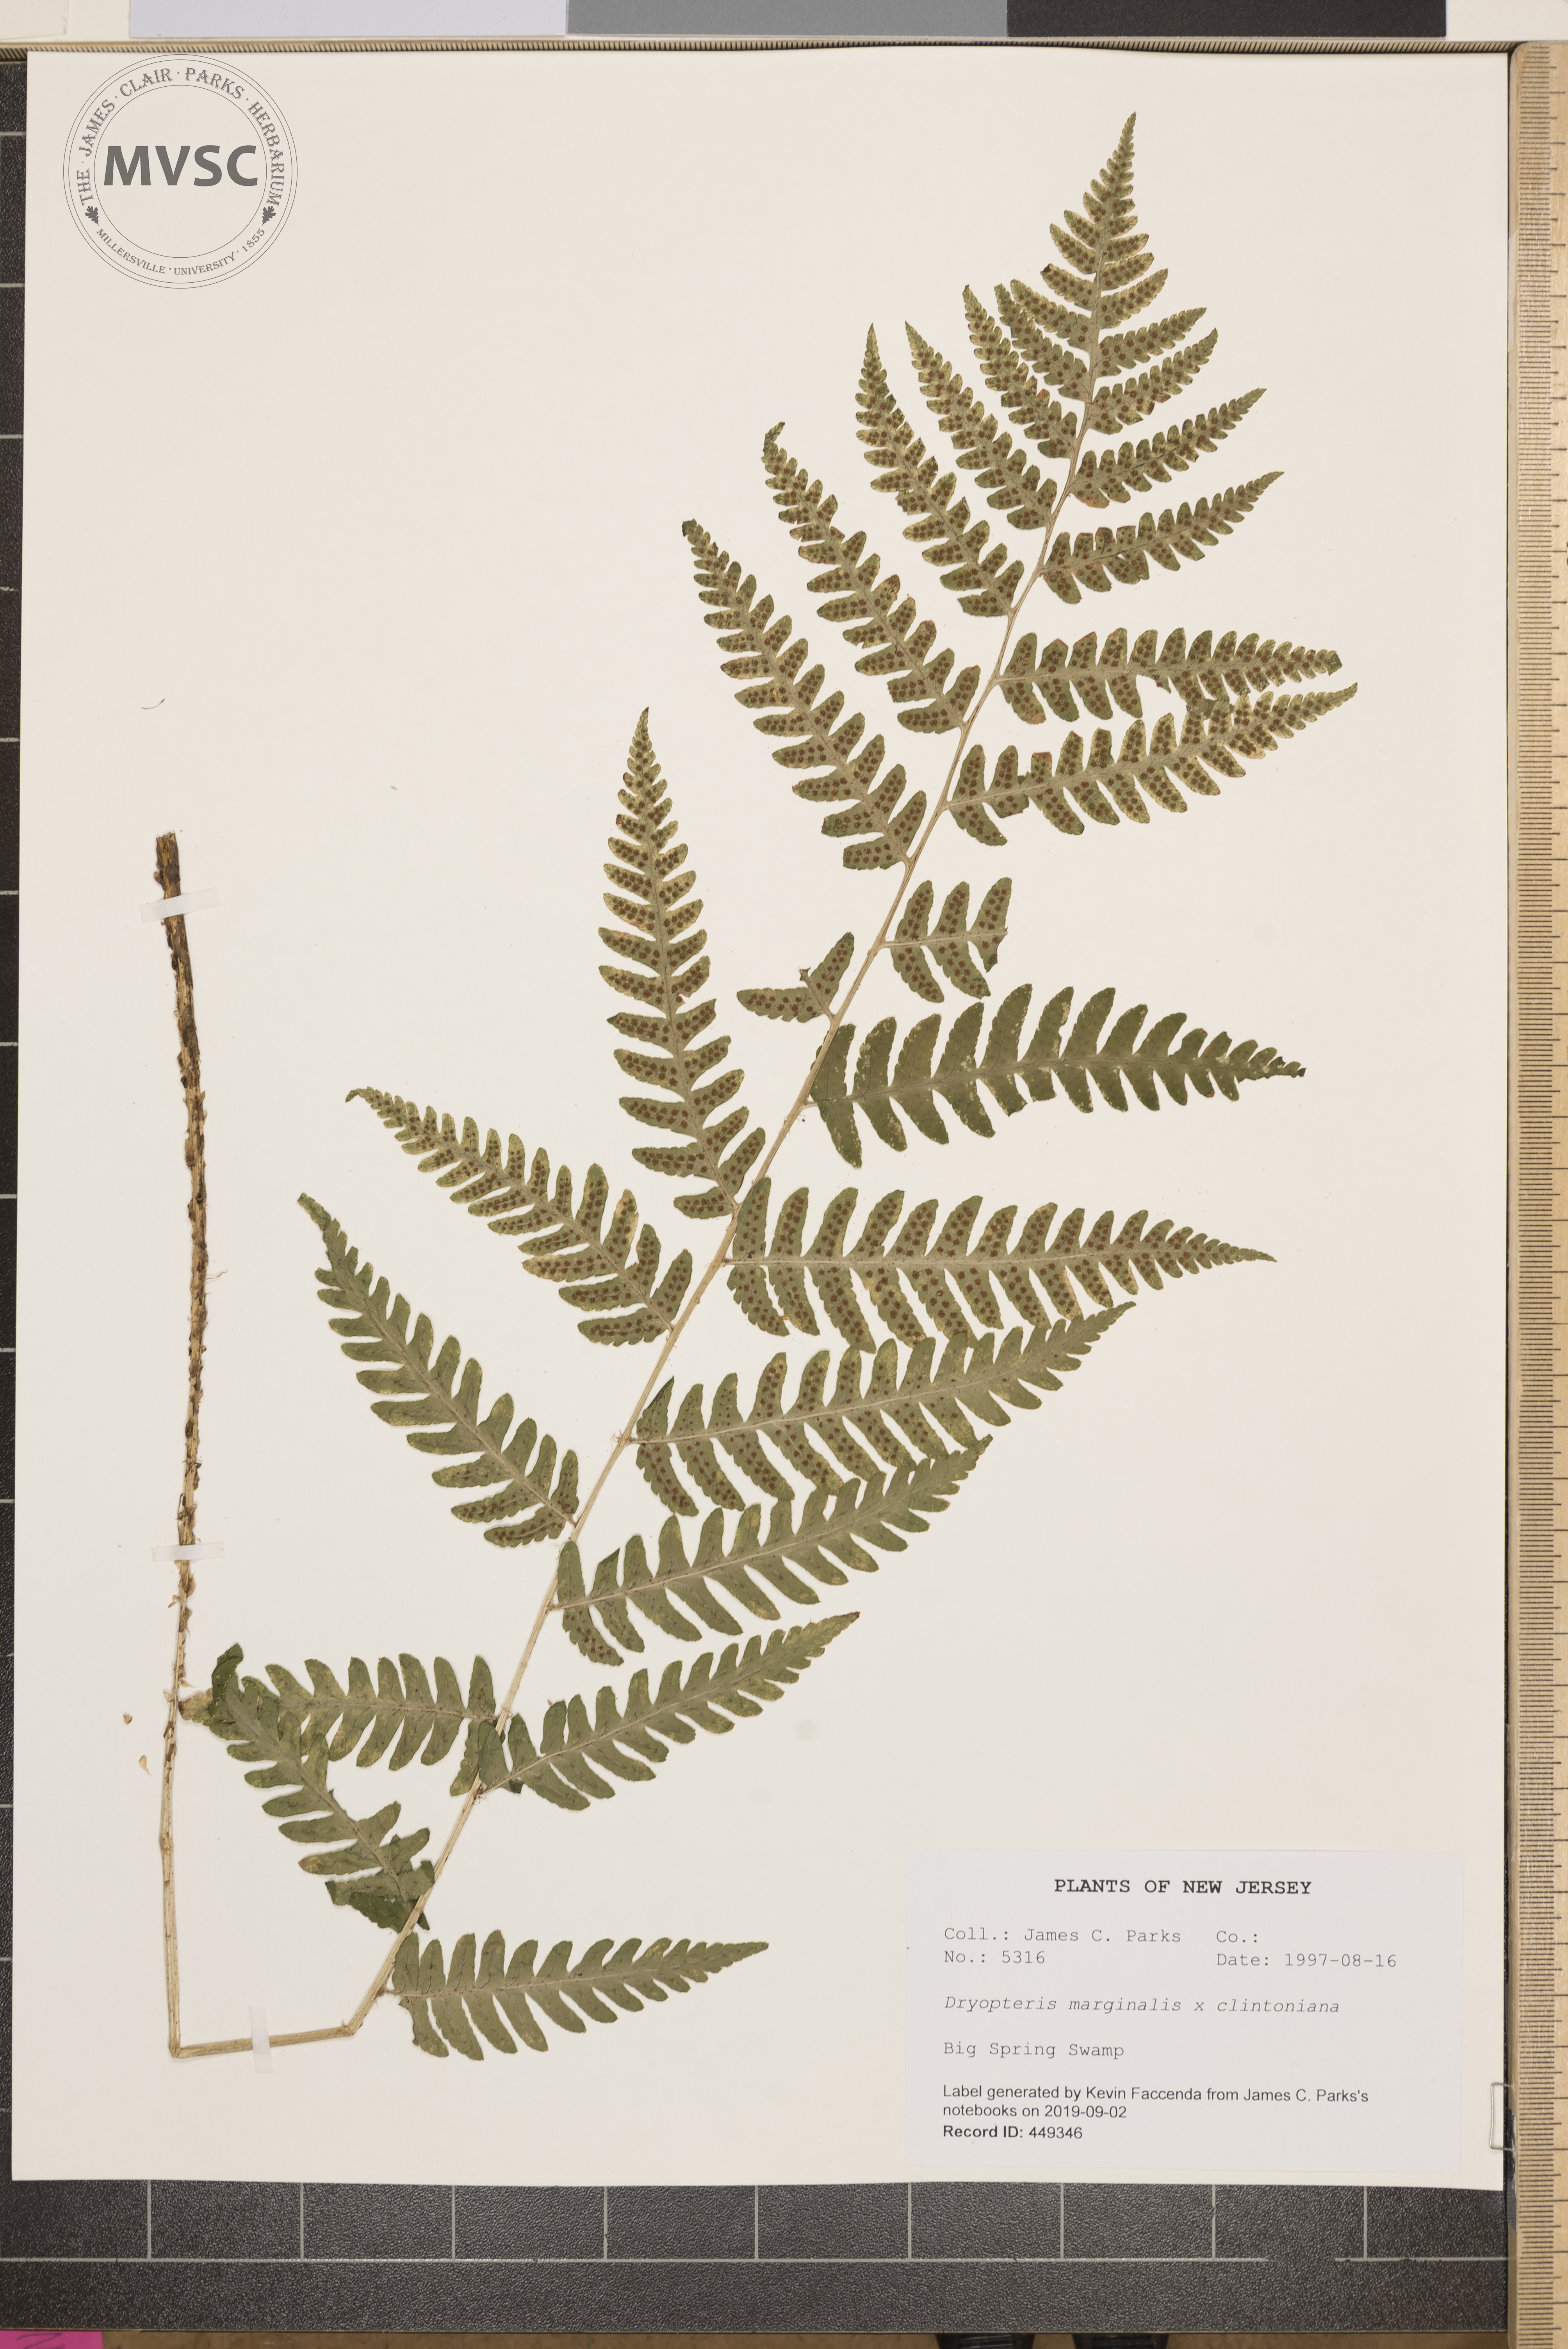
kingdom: Plantae
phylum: Tracheophyta
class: Polypodiopsida
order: Polypodiales
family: Dryopteridaceae
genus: Dryopteris
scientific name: Dryopteris
